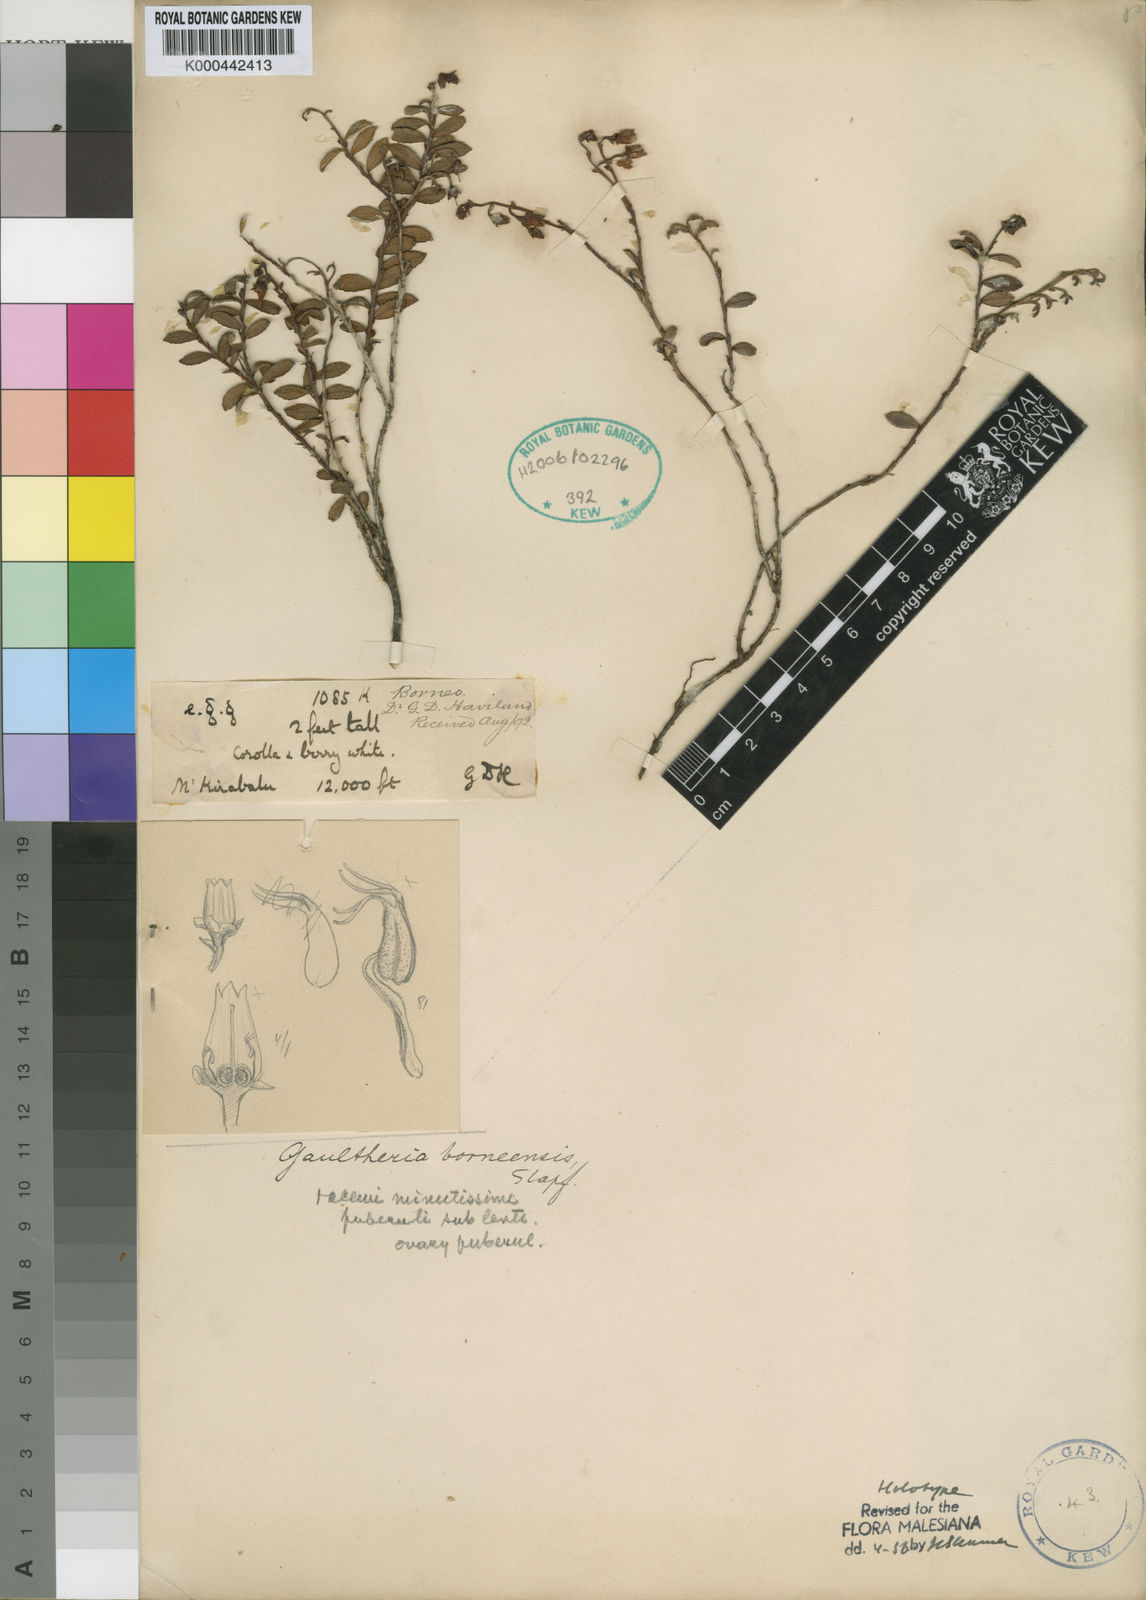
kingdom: Plantae
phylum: Tracheophyta
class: Magnoliopsida
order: Ericales
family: Ericaceae
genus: Gaultheria
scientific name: Gaultheria borneensis
